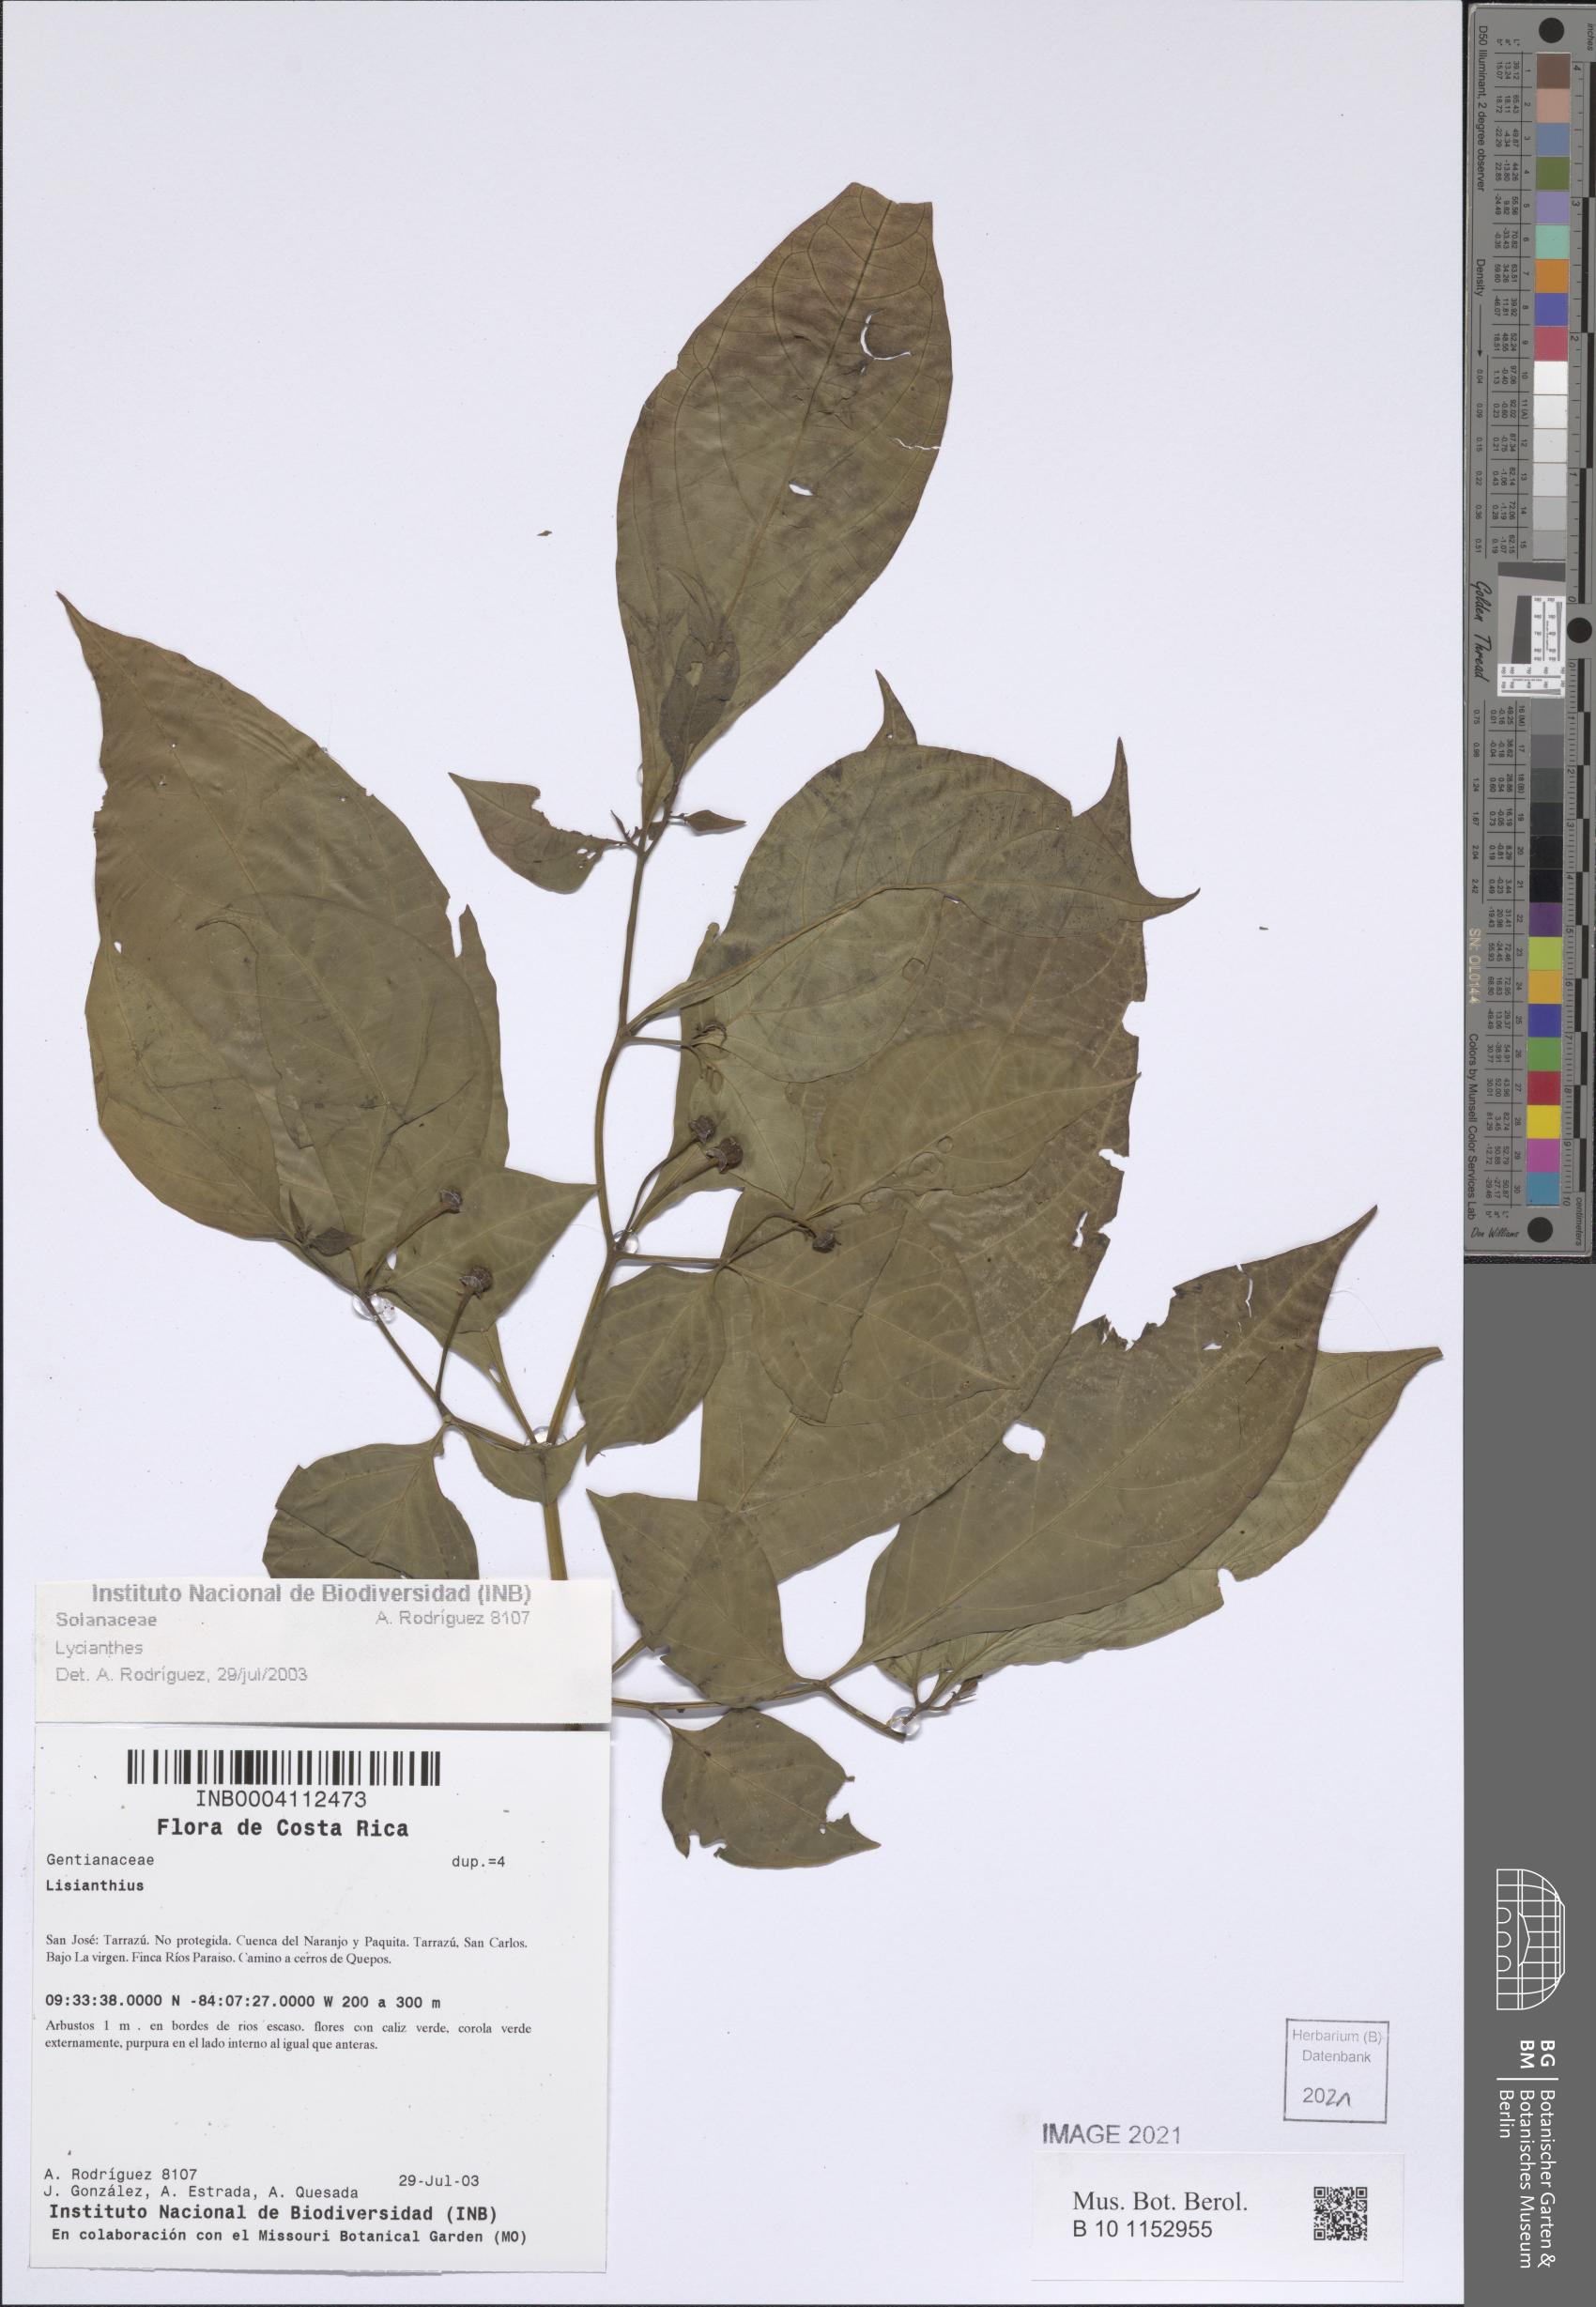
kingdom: Plantae
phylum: Tracheophyta
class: Magnoliopsida
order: Solanales
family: Solanaceae
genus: Lycianthes
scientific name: Lycianthes
